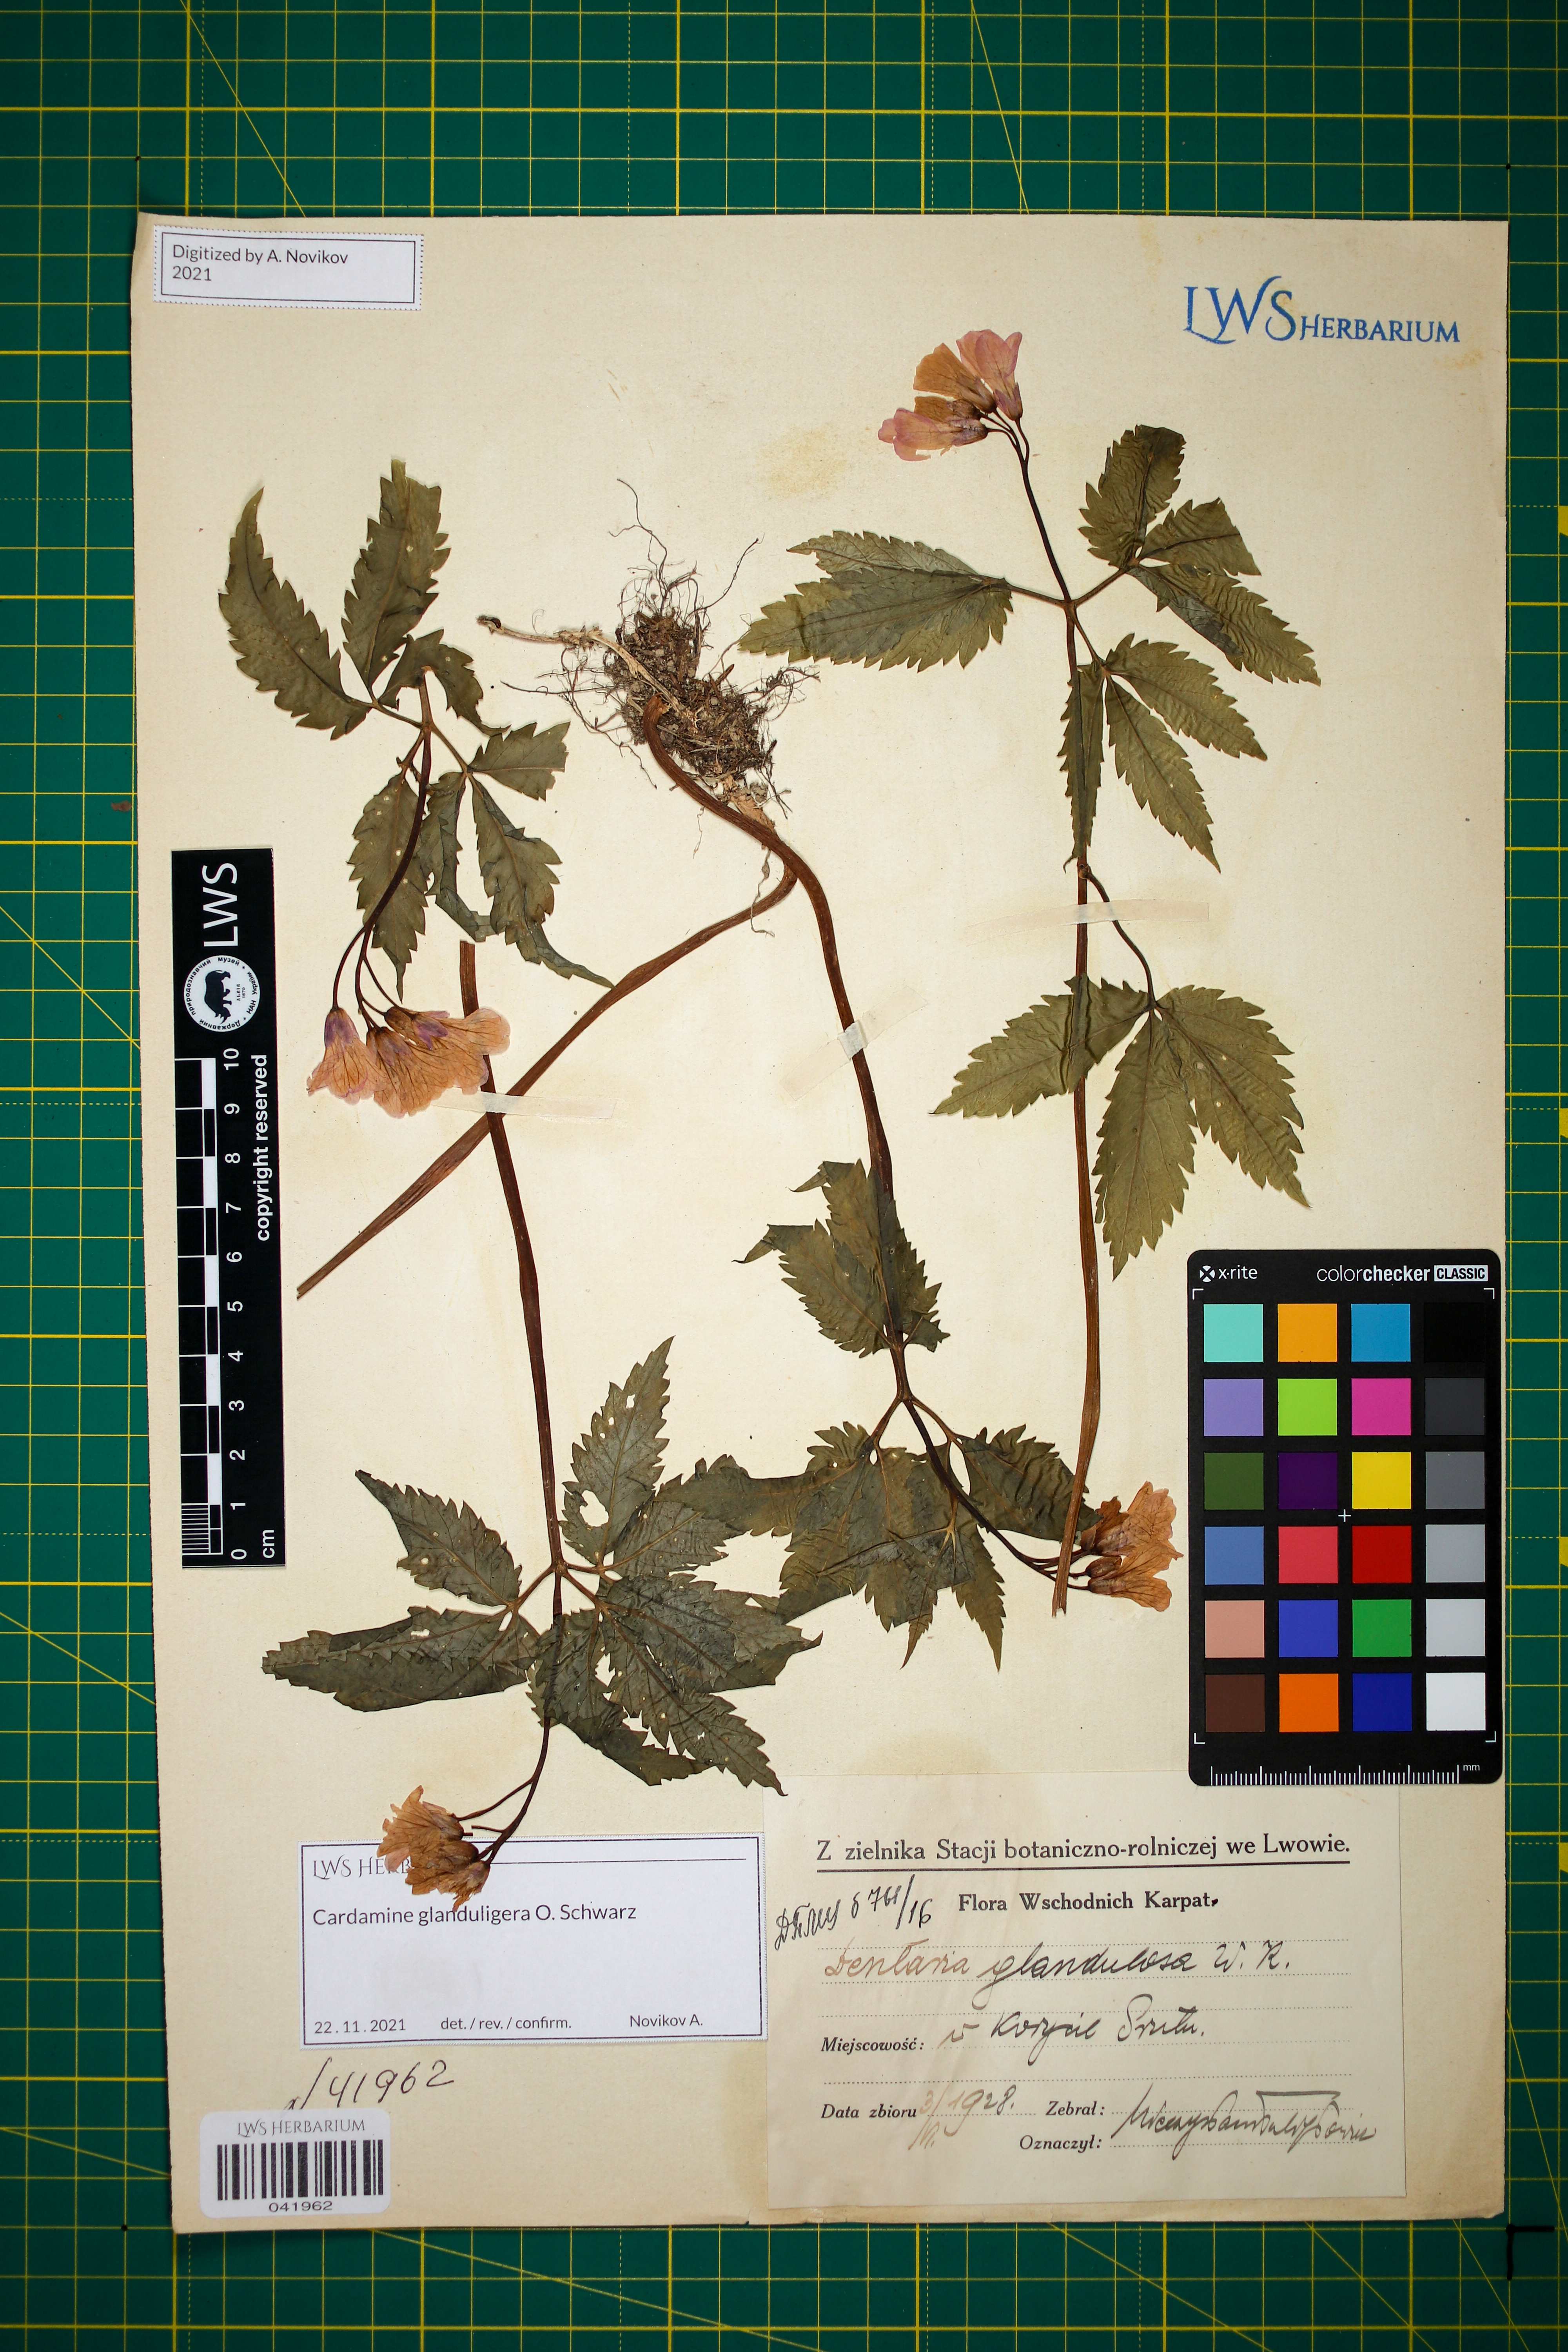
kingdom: Plantae
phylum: Tracheophyta
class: Magnoliopsida
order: Brassicales
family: Brassicaceae
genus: Cardamine
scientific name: Cardamine glanduligera
